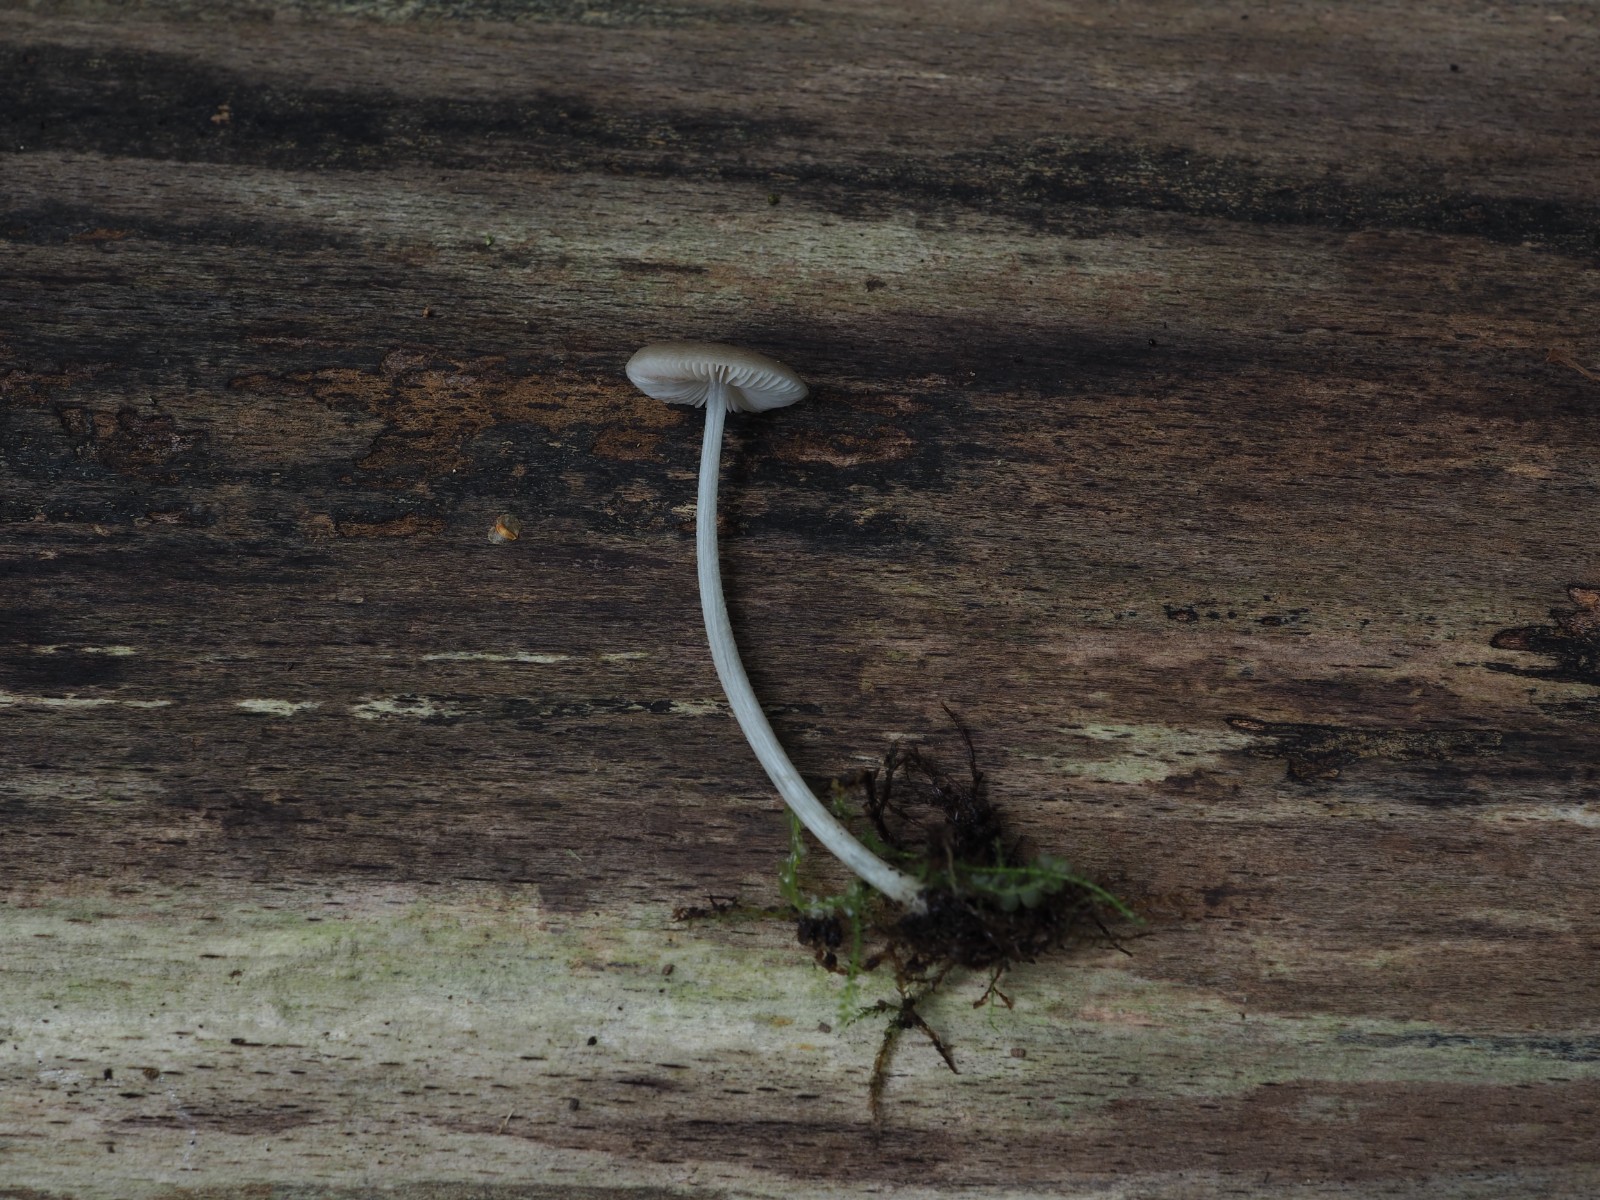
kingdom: Fungi
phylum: Basidiomycota
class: Agaricomycetes
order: Agaricales
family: Pluteaceae
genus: Pluteus
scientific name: Pluteus reisneri
